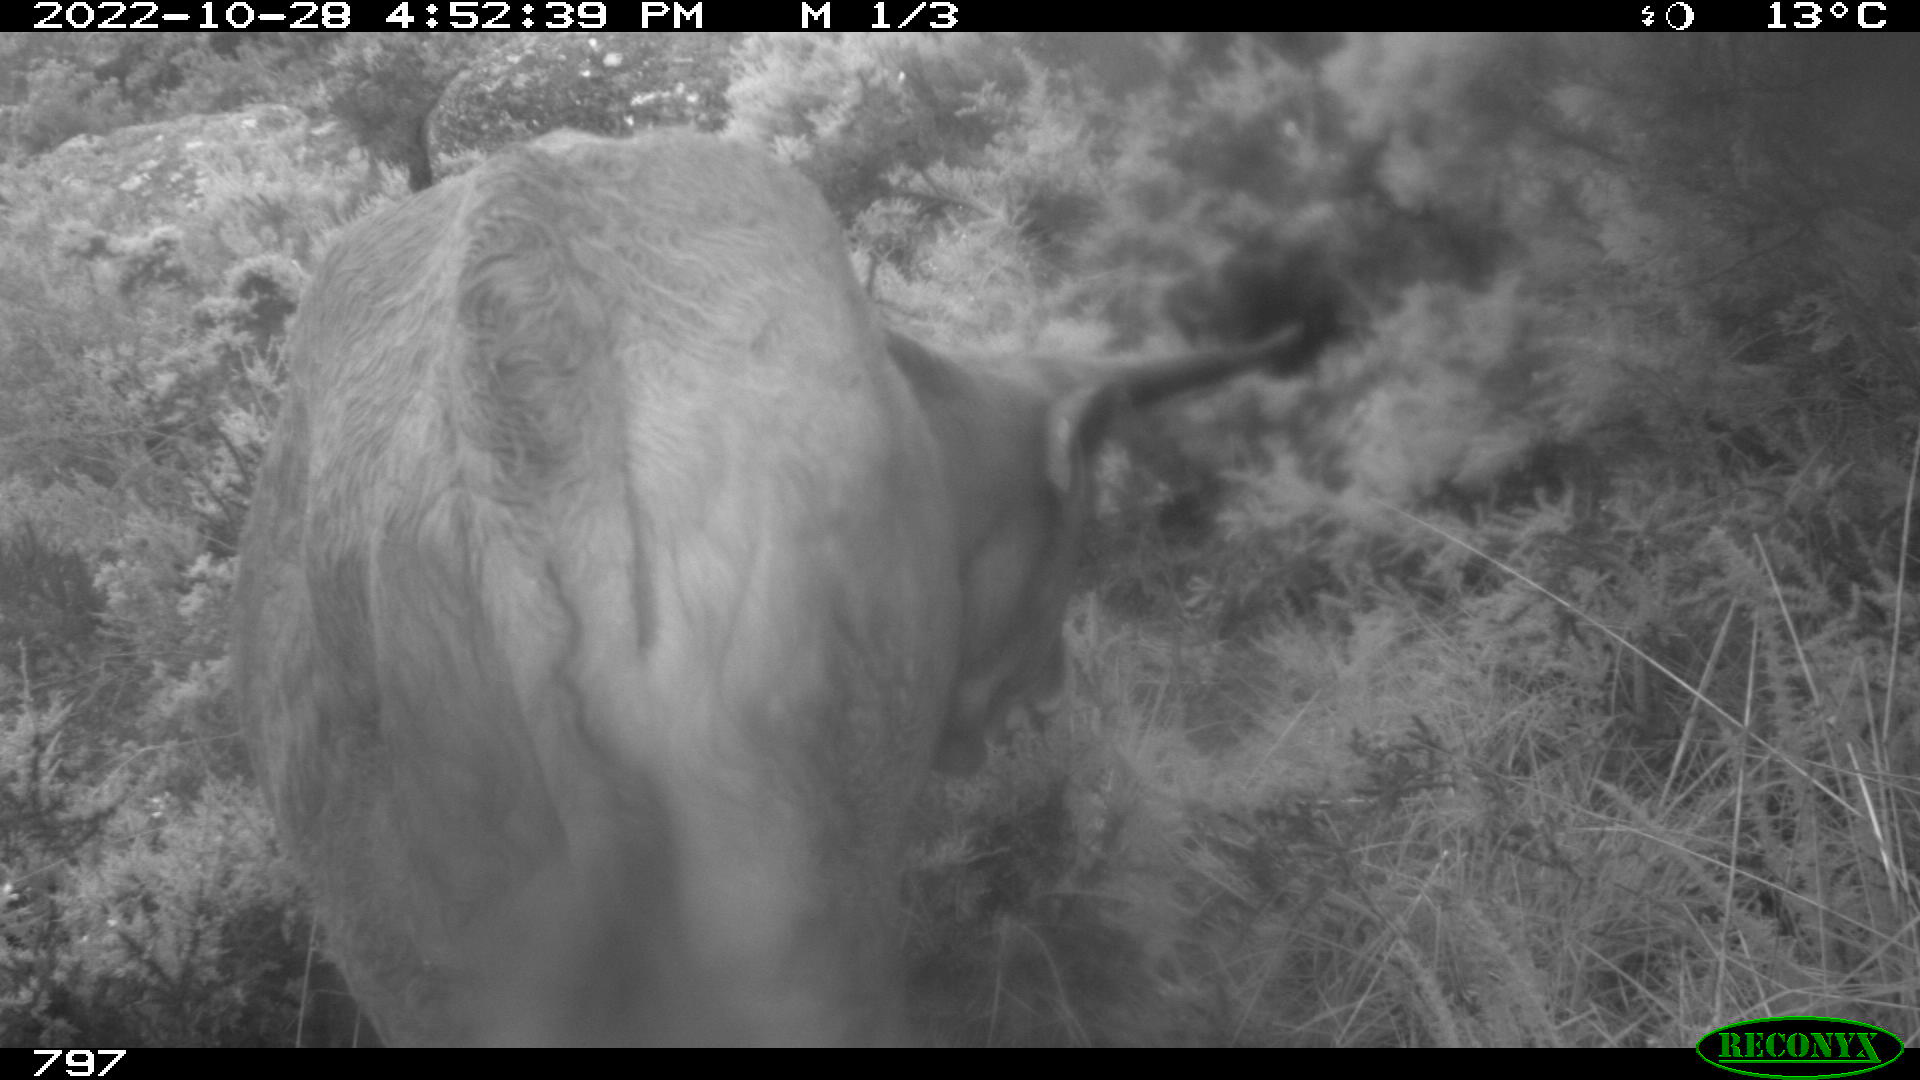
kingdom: Animalia
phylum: Chordata
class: Mammalia
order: Artiodactyla
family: Bovidae
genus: Bos
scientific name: Bos taurus
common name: Domesticated cattle
